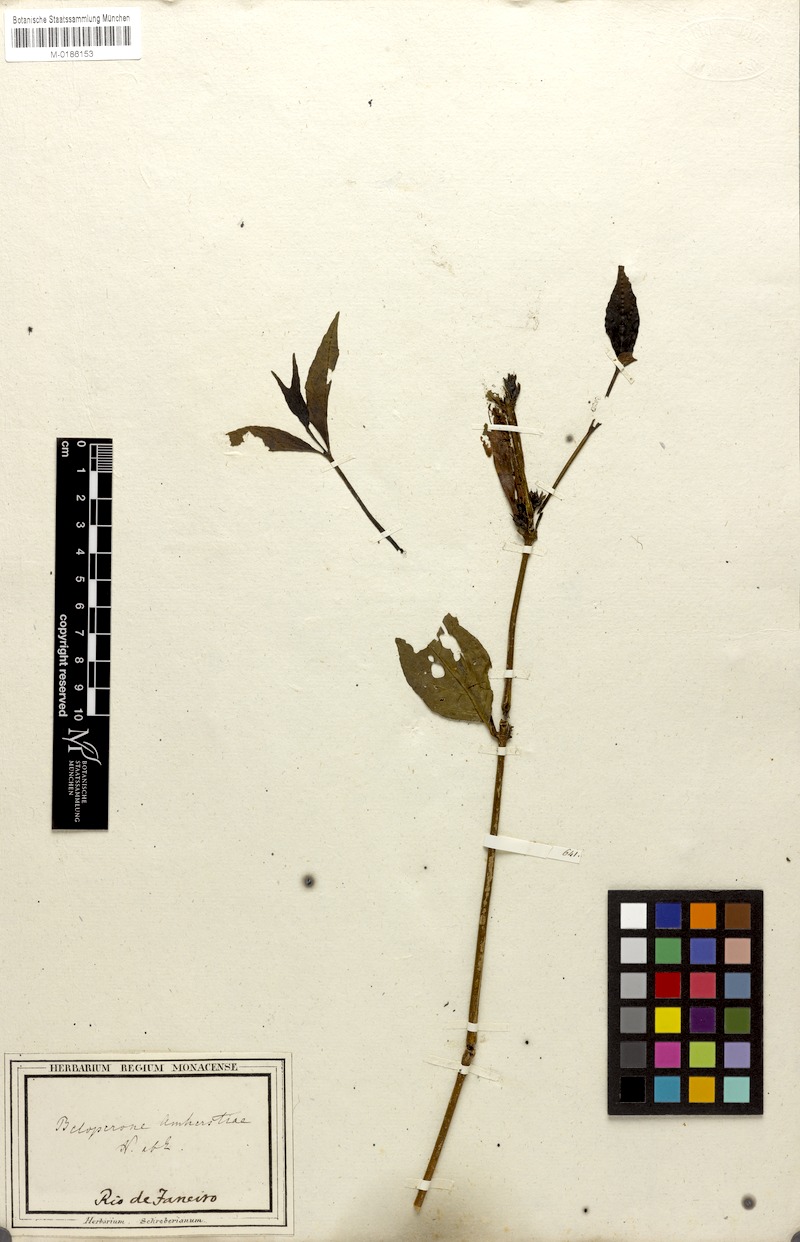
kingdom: Plantae
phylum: Tracheophyta
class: Magnoliopsida
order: Lamiales
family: Acanthaceae
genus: Justicia
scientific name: Justicia brasiliana
